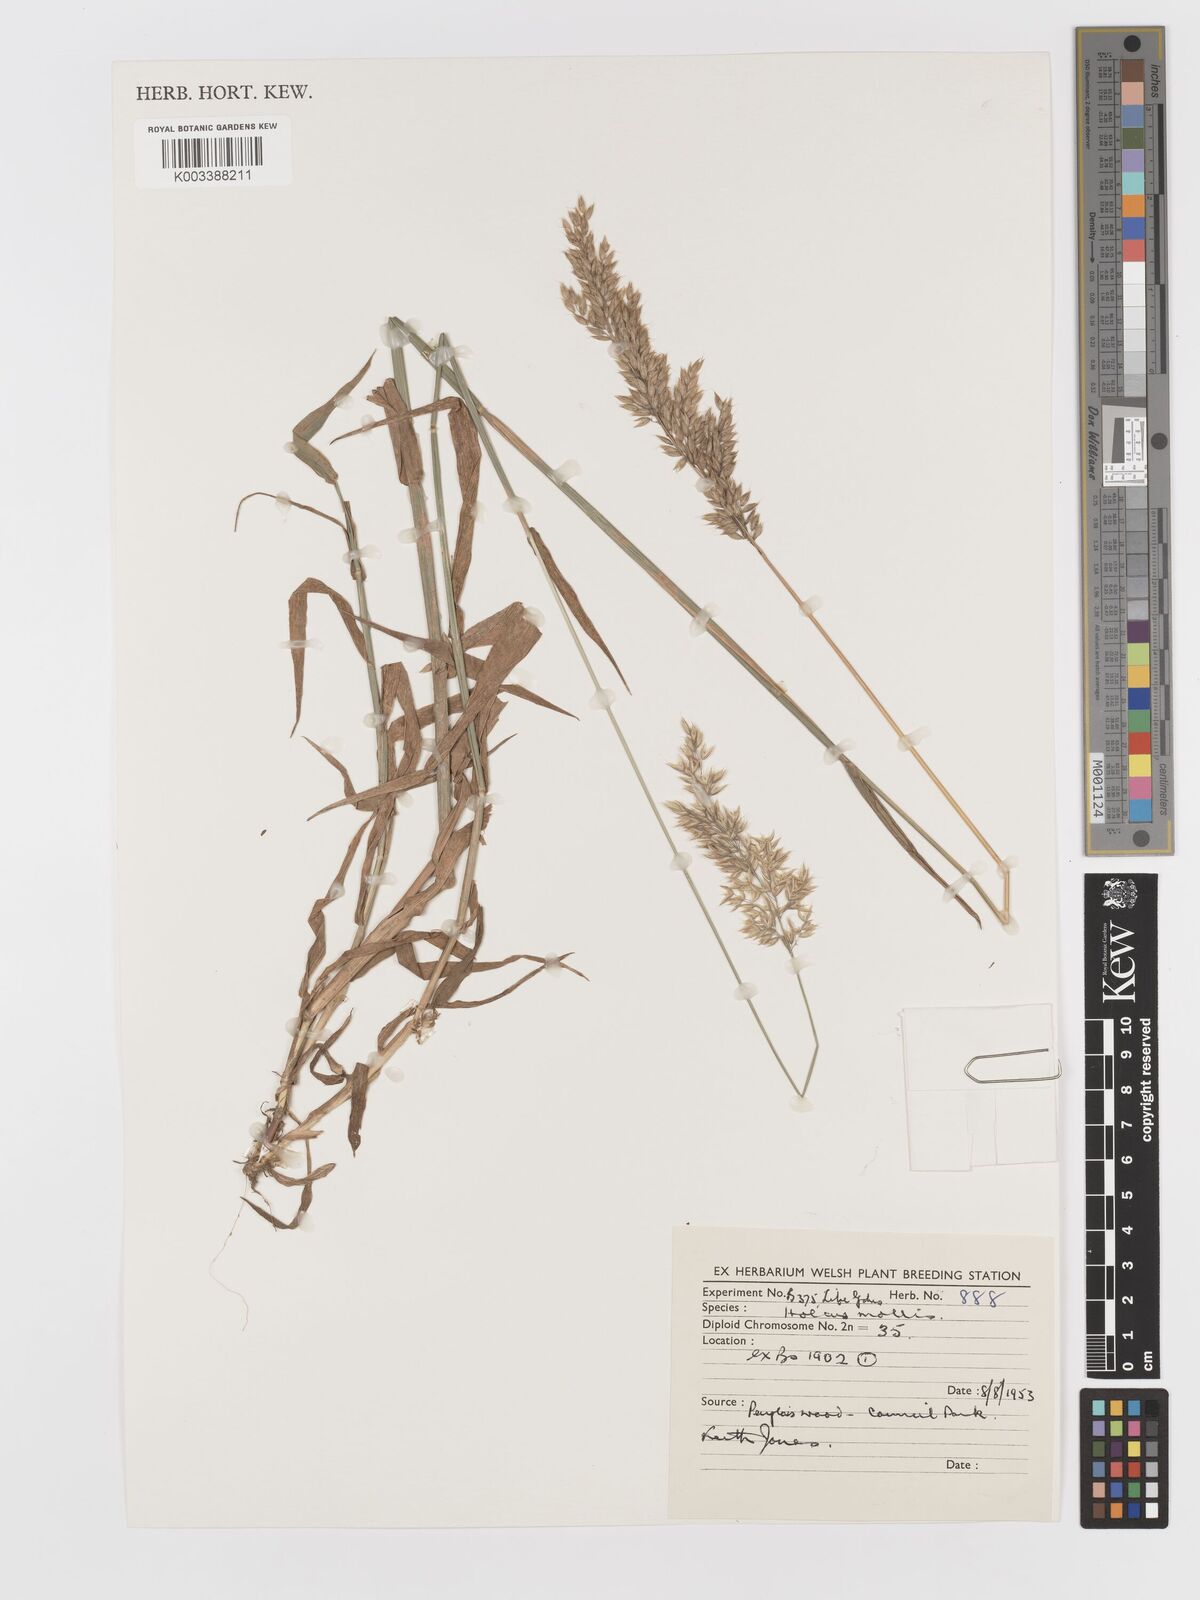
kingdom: Plantae
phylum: Tracheophyta
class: Liliopsida
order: Poales
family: Poaceae
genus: Holcus
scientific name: Holcus mollis
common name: Creeping velvetgrass
